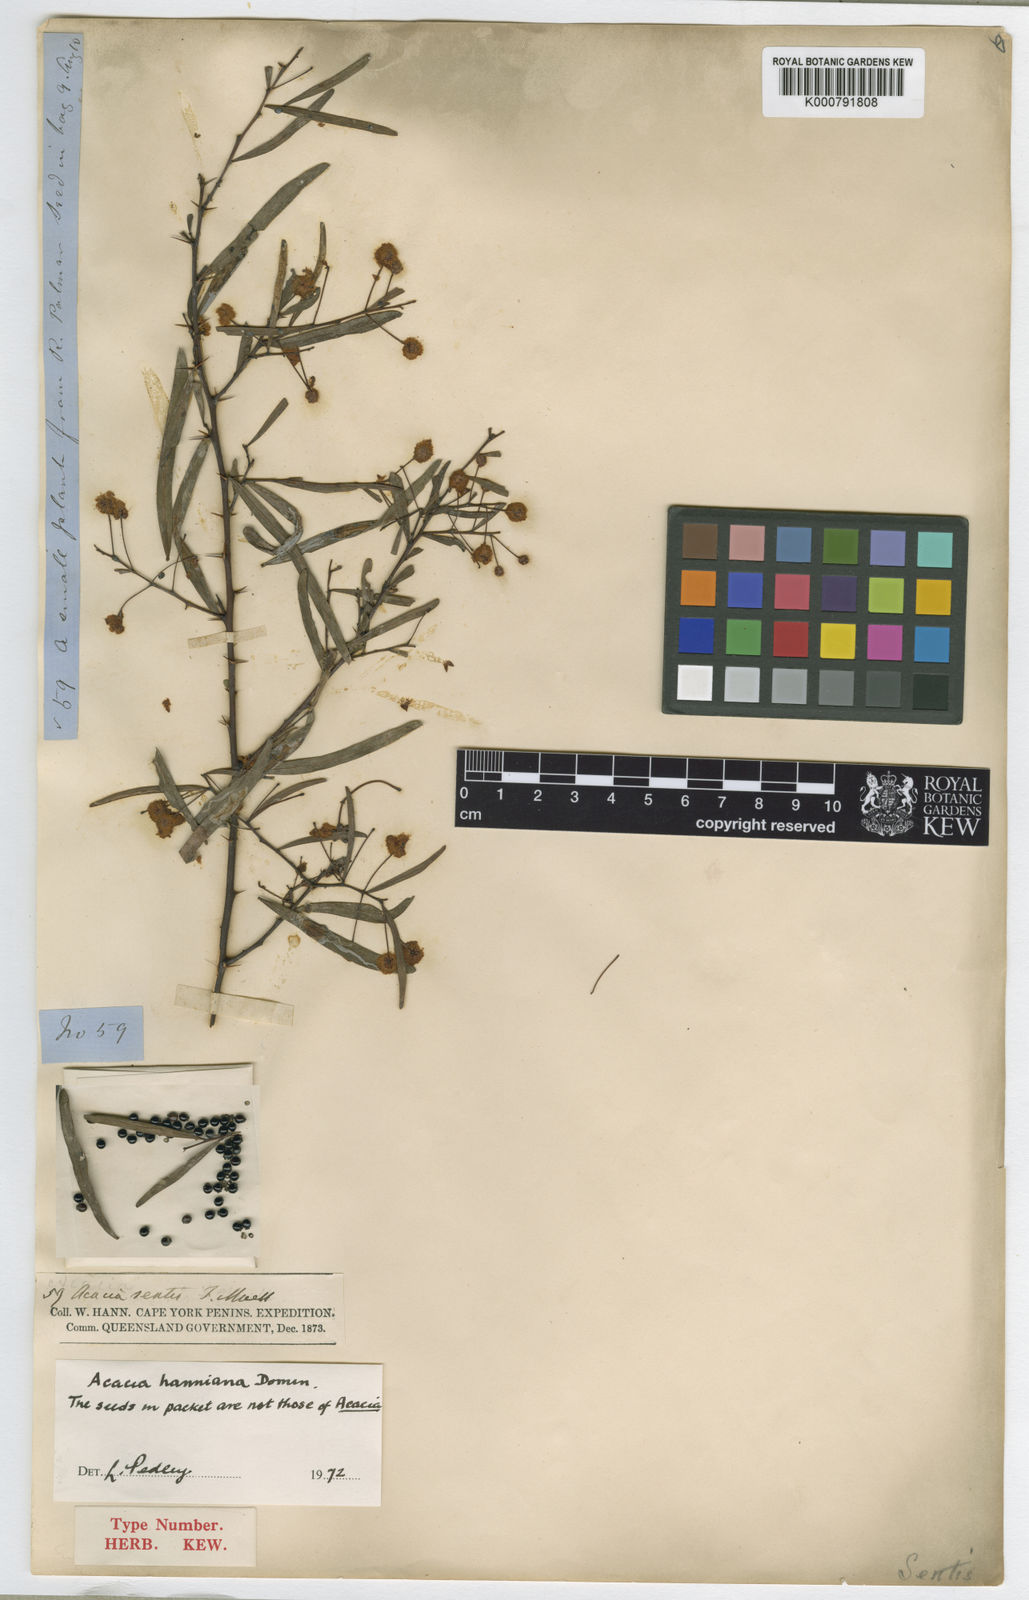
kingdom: Plantae
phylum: Tracheophyta
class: Magnoliopsida
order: Fabales
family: Fabaceae
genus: Acacia
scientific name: Acacia victoriae
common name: Bramble wattle
